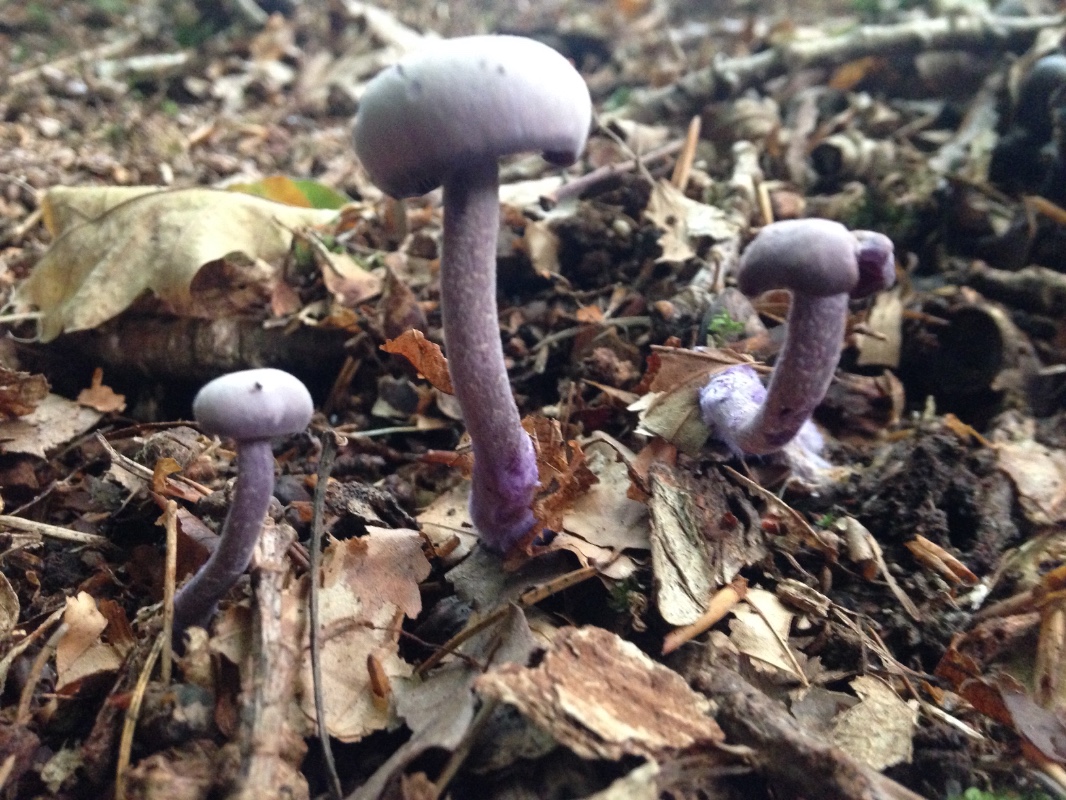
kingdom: Fungi
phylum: Basidiomycota
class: Agaricomycetes
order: Agaricales
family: Hydnangiaceae
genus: Laccaria
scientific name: Laccaria amethystina
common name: violet ametysthat
